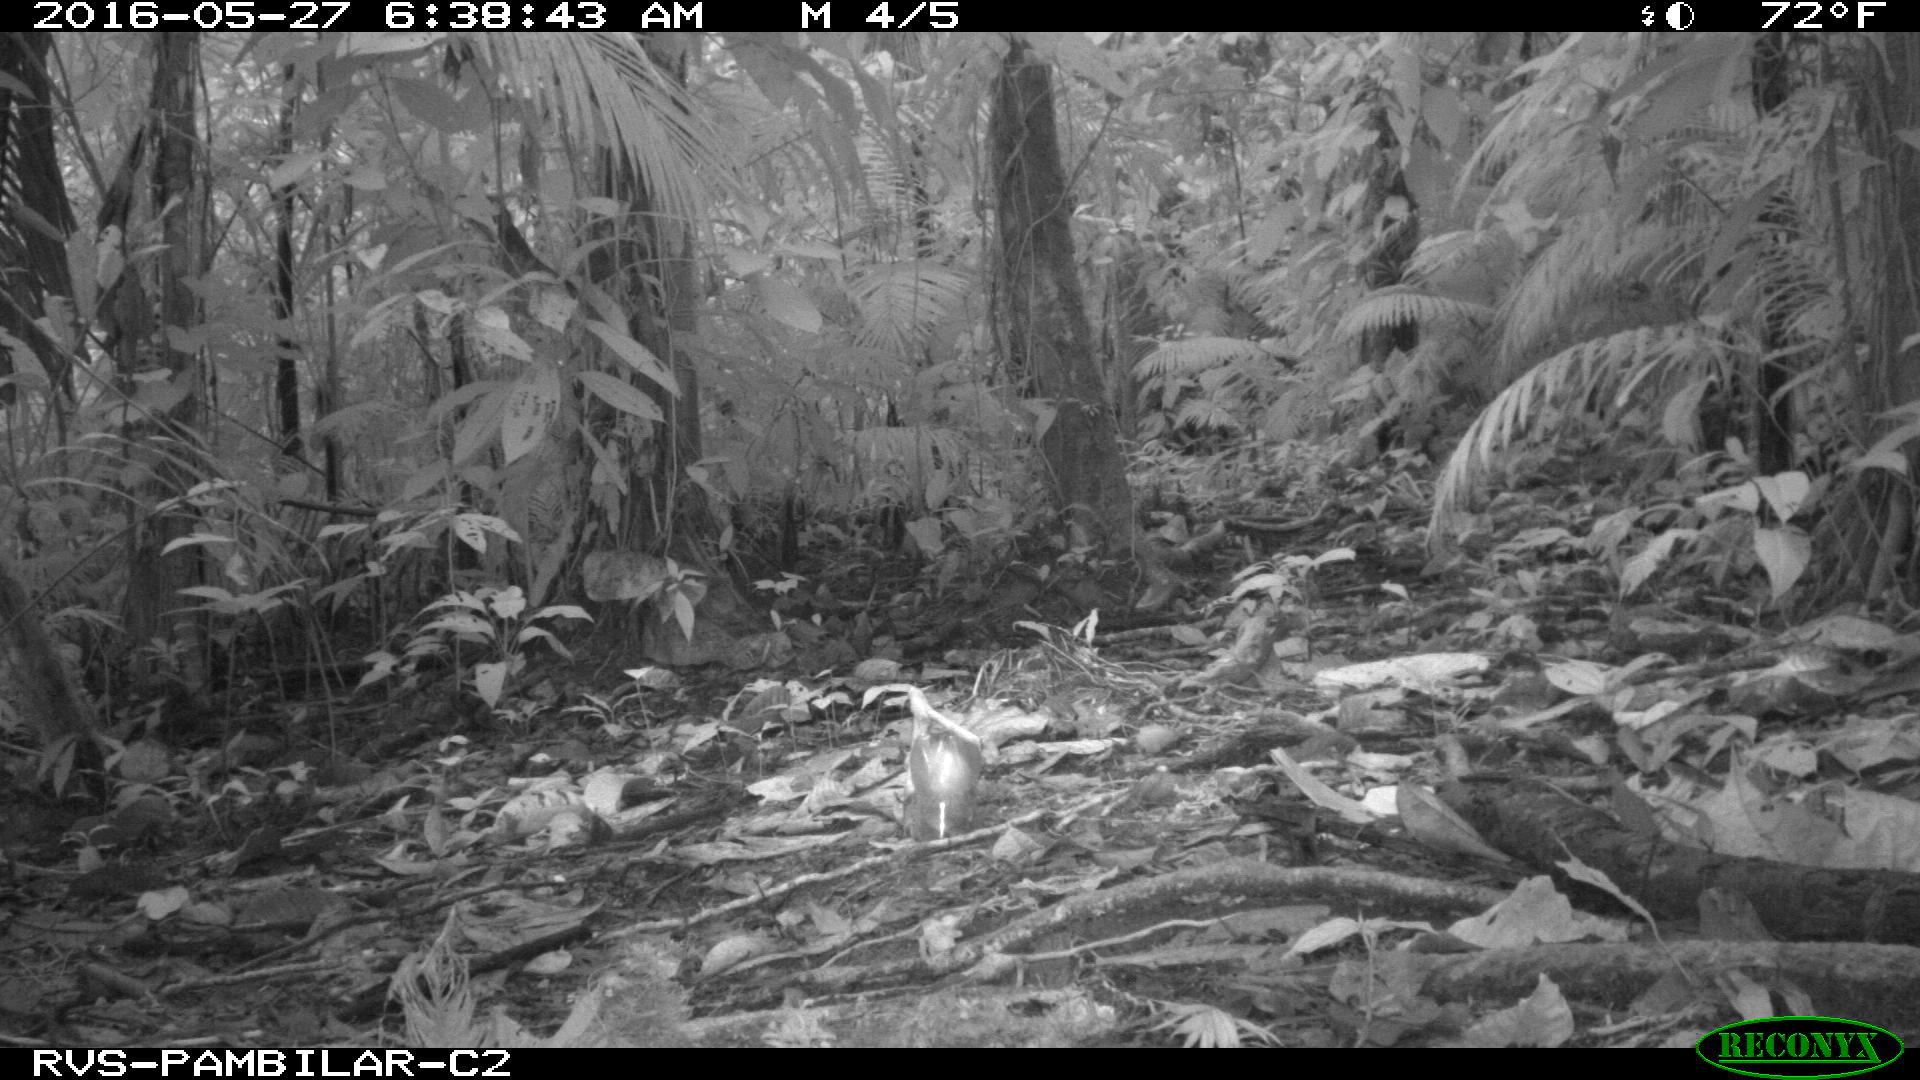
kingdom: Animalia
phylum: Chordata
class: Mammalia
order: Rodentia
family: Dasyproctidae
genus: Dasyprocta
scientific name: Dasyprocta punctata
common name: Central american agouti
